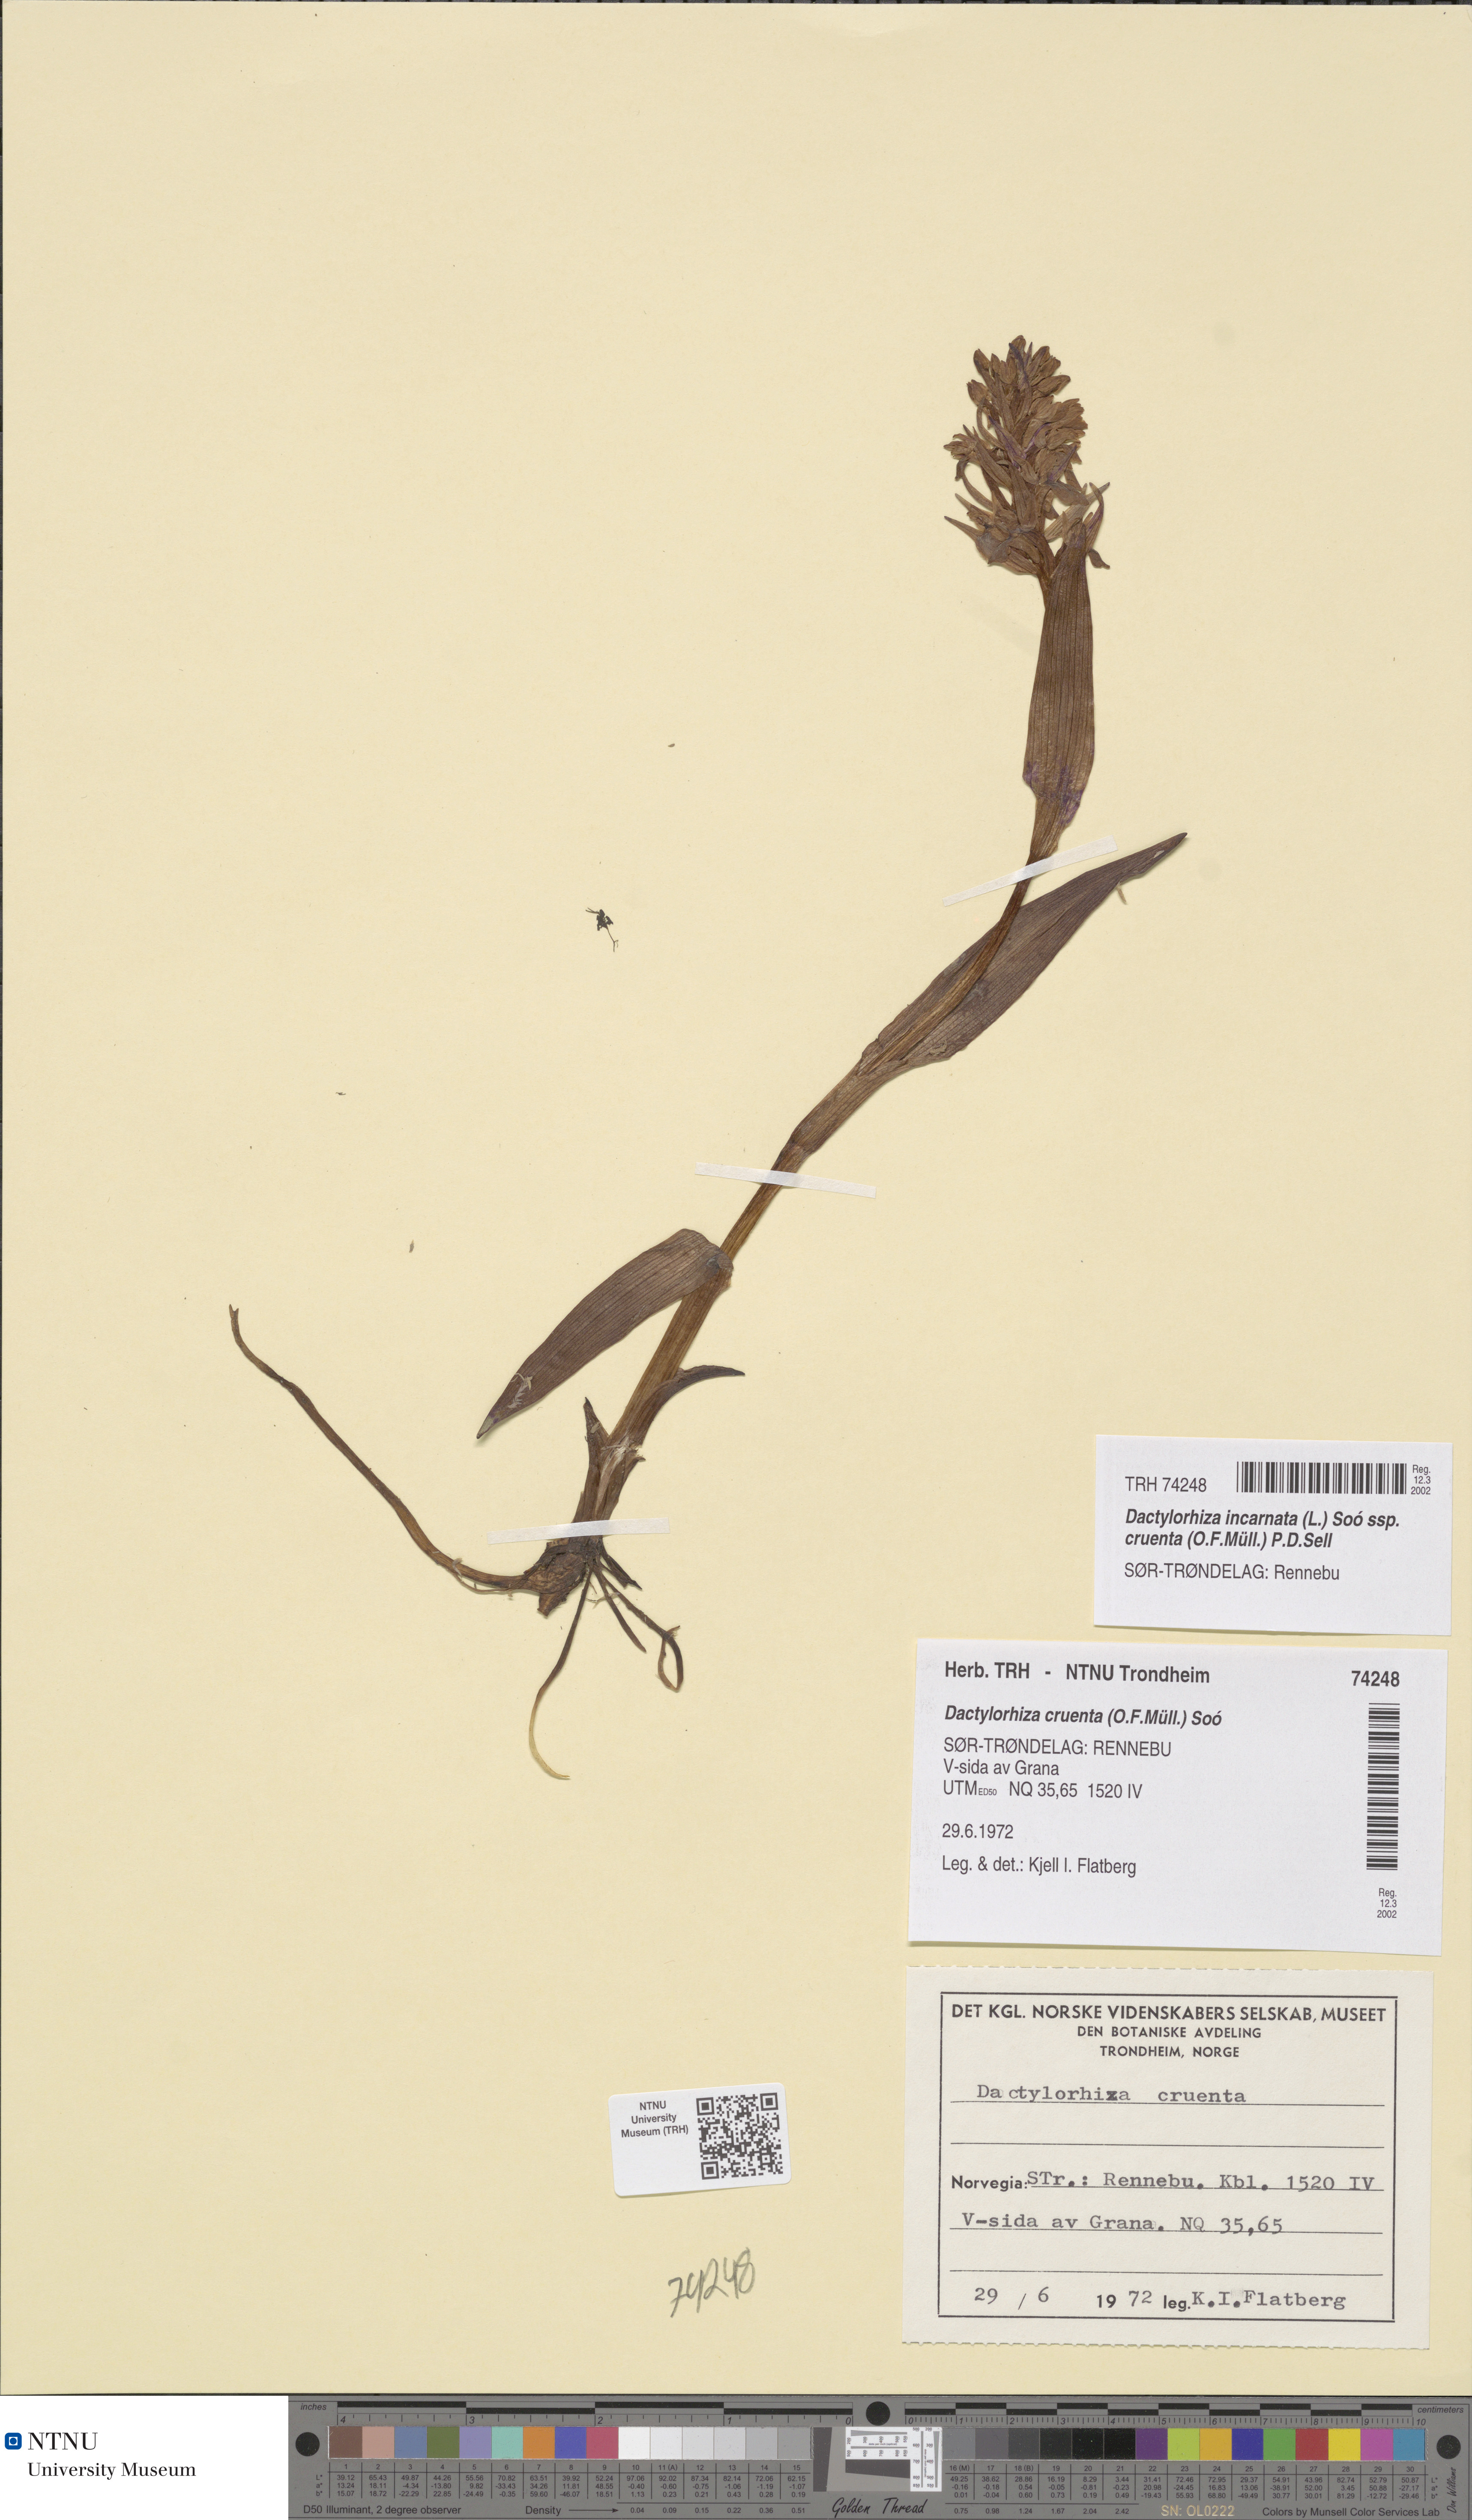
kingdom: Plantae
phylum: Tracheophyta
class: Liliopsida
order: Asparagales
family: Orchidaceae
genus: Dactylorhiza
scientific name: Dactylorhiza incarnata
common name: Early marsh-orchid
